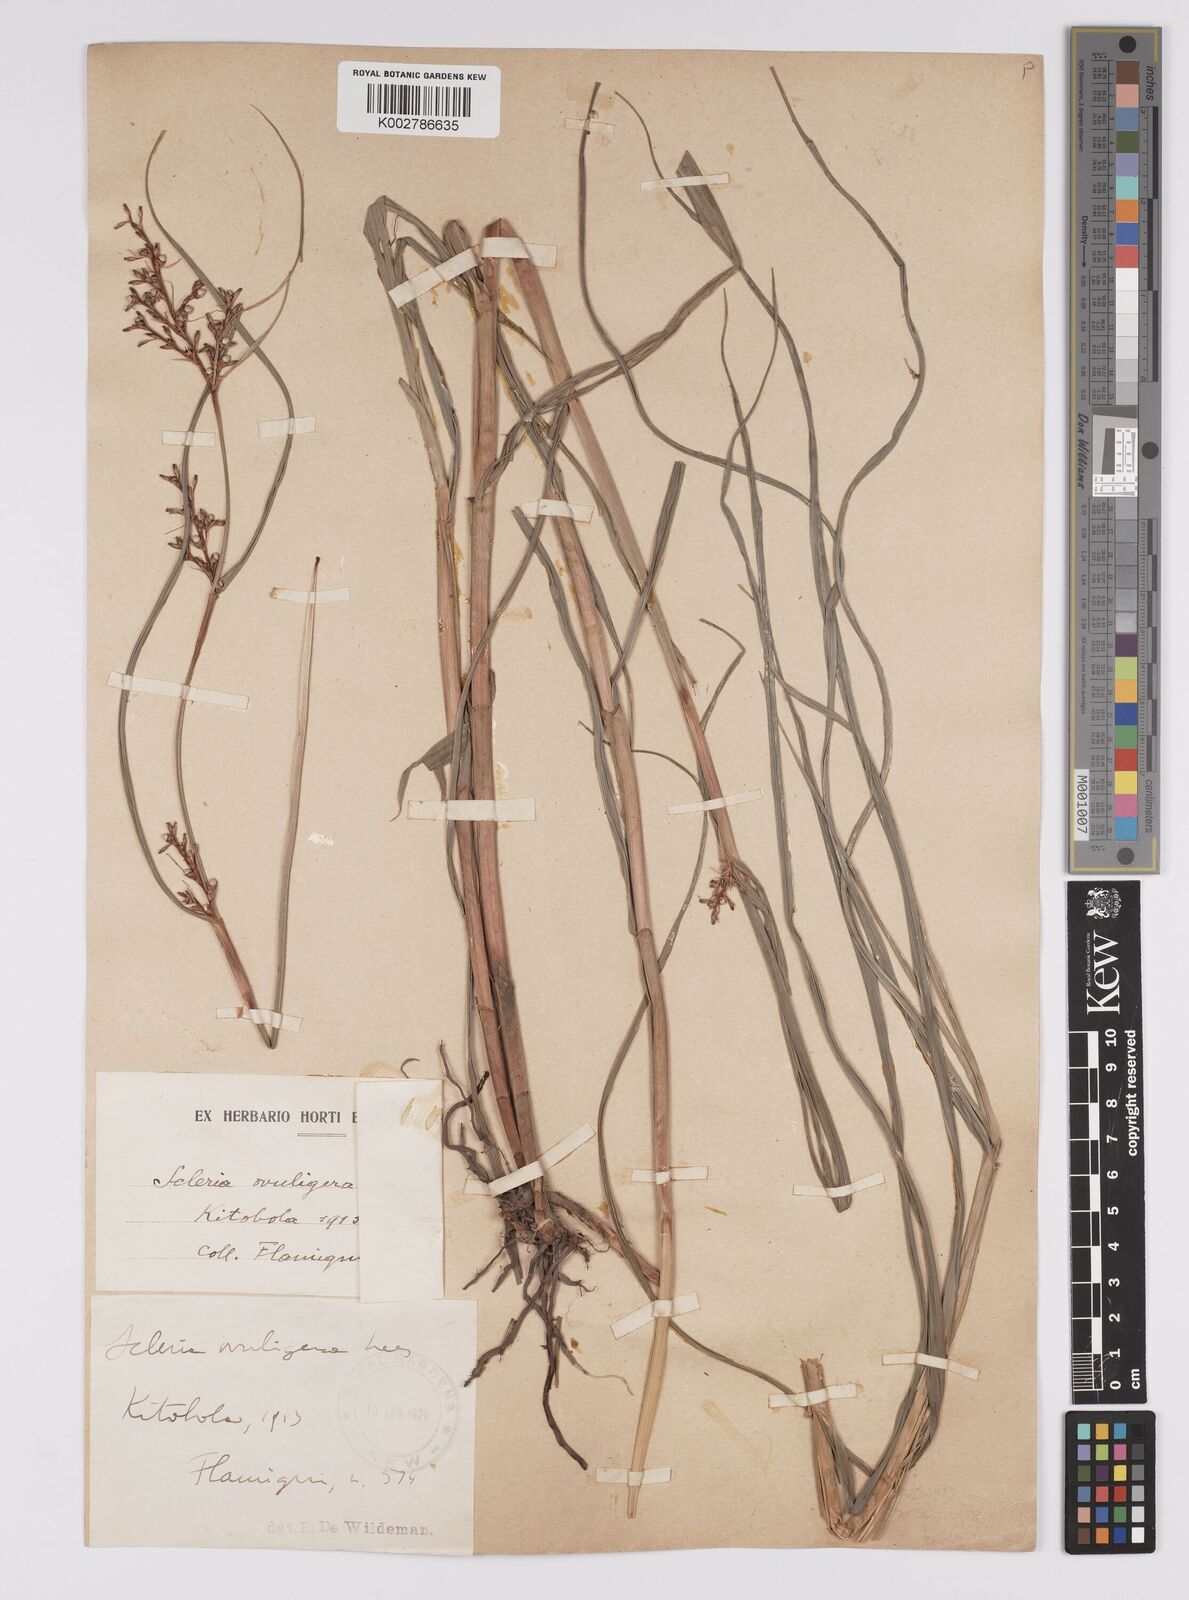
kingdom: Plantae
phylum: Tracheophyta
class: Liliopsida
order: Poales
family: Cyperaceae
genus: Scleria
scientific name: Scleria naumanniana
